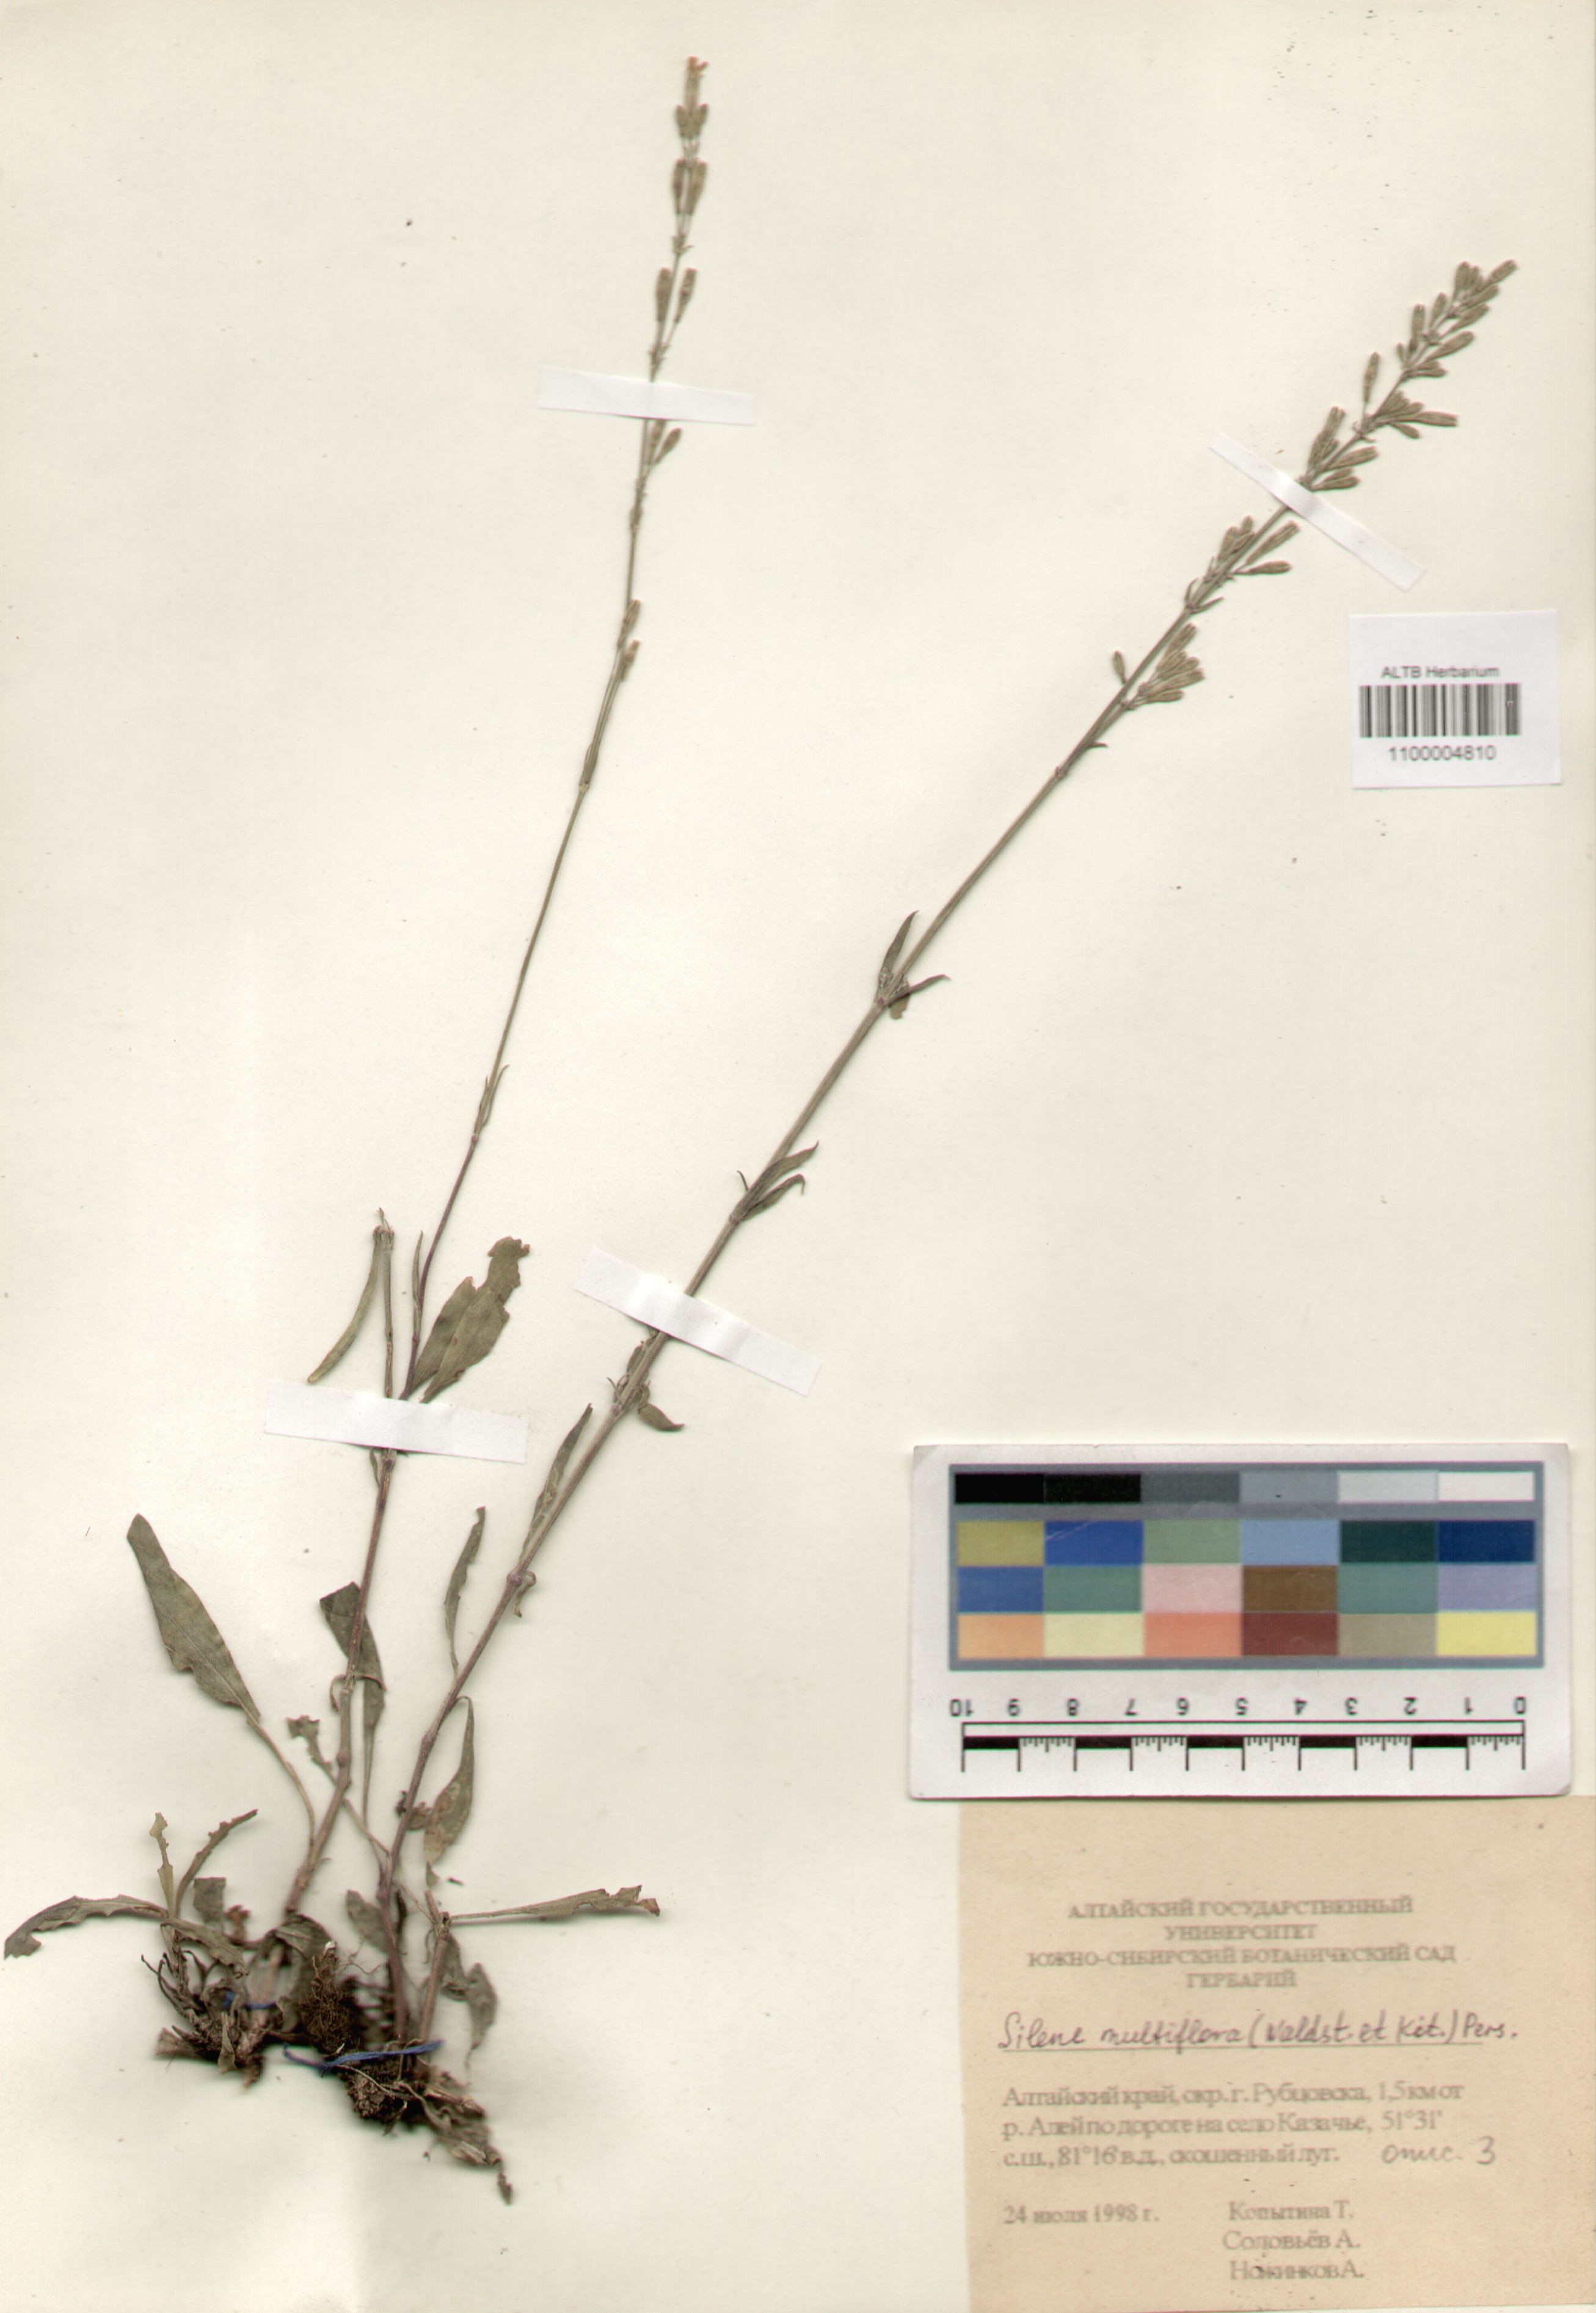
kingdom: Plantae
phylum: Tracheophyta
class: Magnoliopsida
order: Caryophyllales
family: Caryophyllaceae
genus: Silene
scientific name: Silene multiflora
